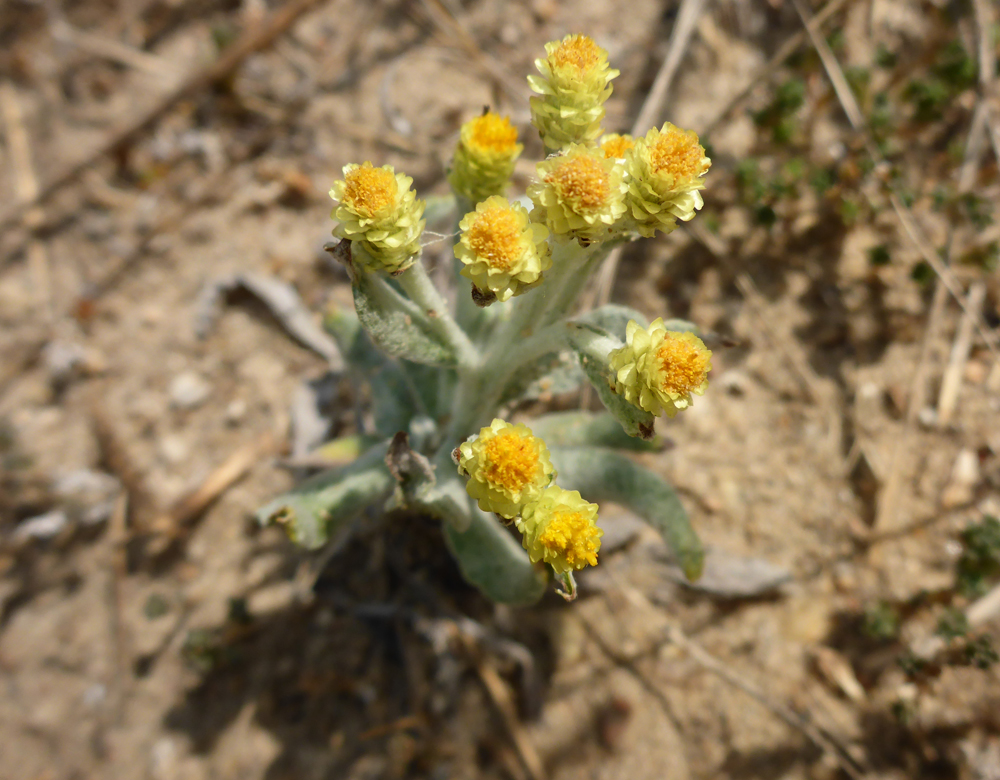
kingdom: Plantae
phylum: Tracheophyta
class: Magnoliopsida
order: Asterales
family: Asteraceae
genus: Helichrysum
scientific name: Helichrysum arenarium
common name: Strawflower
